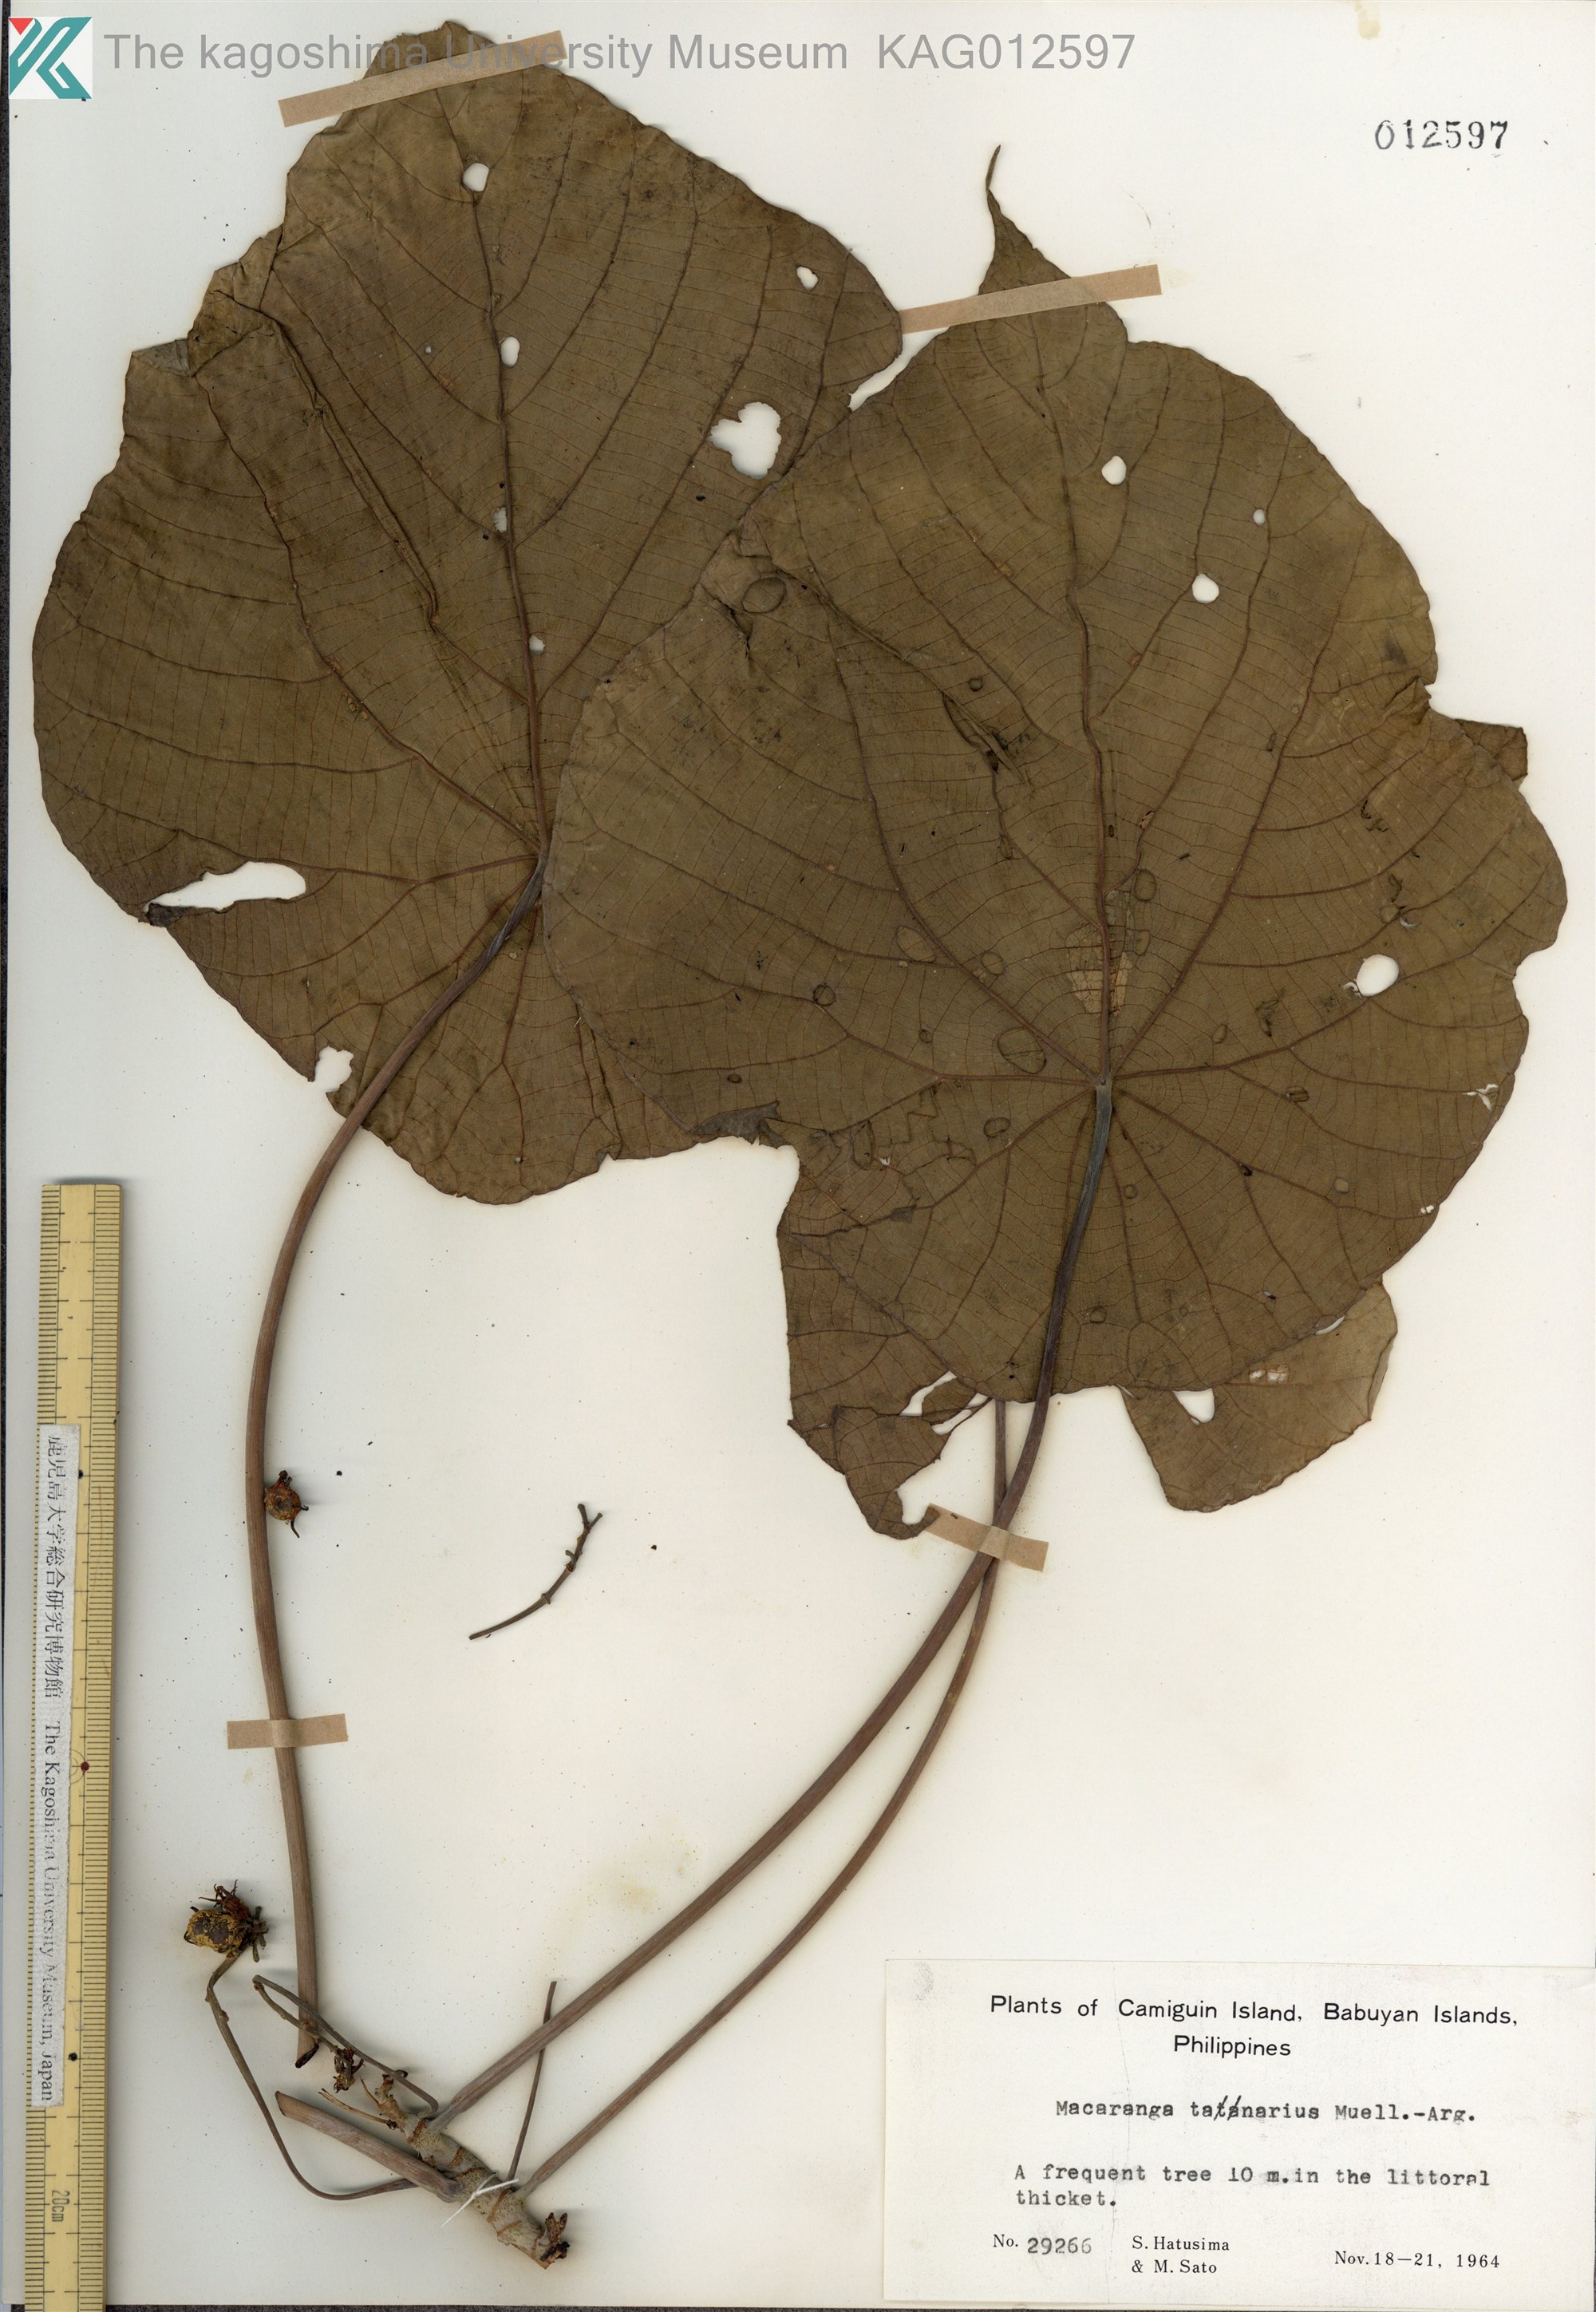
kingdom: Plantae
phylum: Tracheophyta
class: Magnoliopsida
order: Malpighiales
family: Euphorbiaceae
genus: Macaranga
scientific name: Macaranga tanarius
